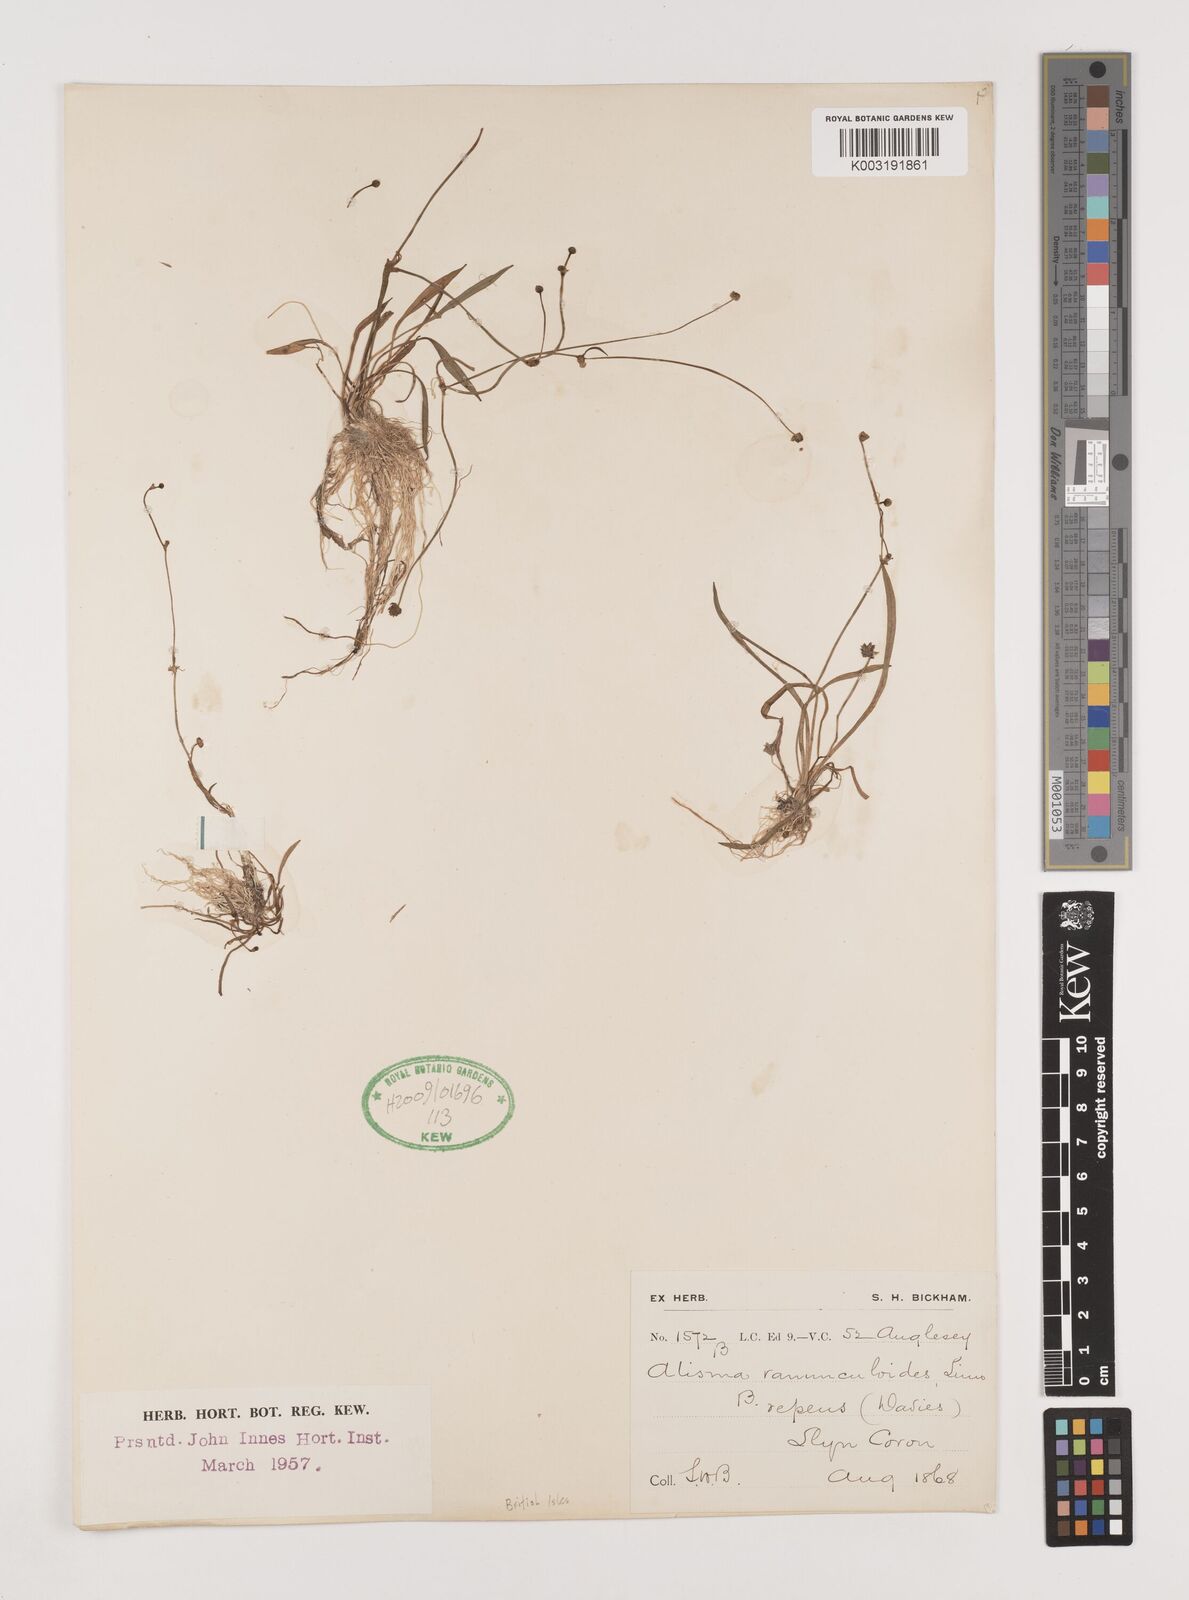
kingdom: Plantae
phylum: Tracheophyta
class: Liliopsida
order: Alismatales
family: Alismataceae
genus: Baldellia
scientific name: Baldellia repens
